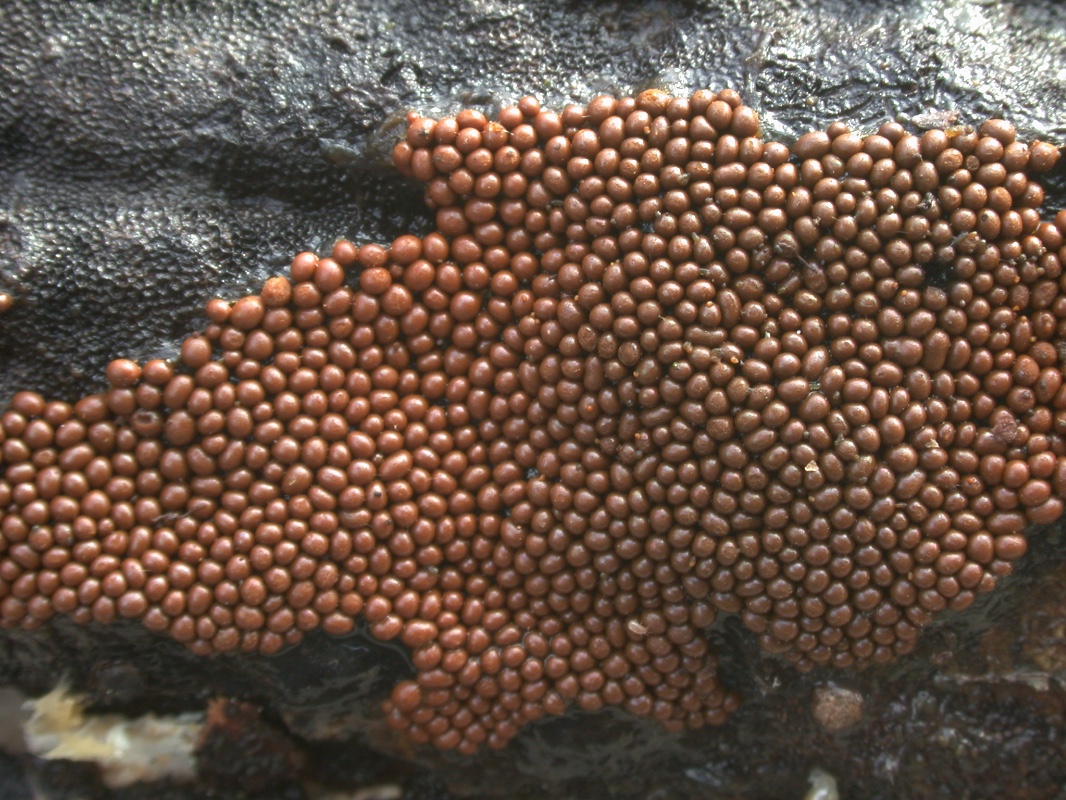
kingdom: Protozoa
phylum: Mycetozoa
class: Myxomycetes
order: Trichiales
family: Trichiaceae
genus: Oligonema
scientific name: Oligonema persimile
